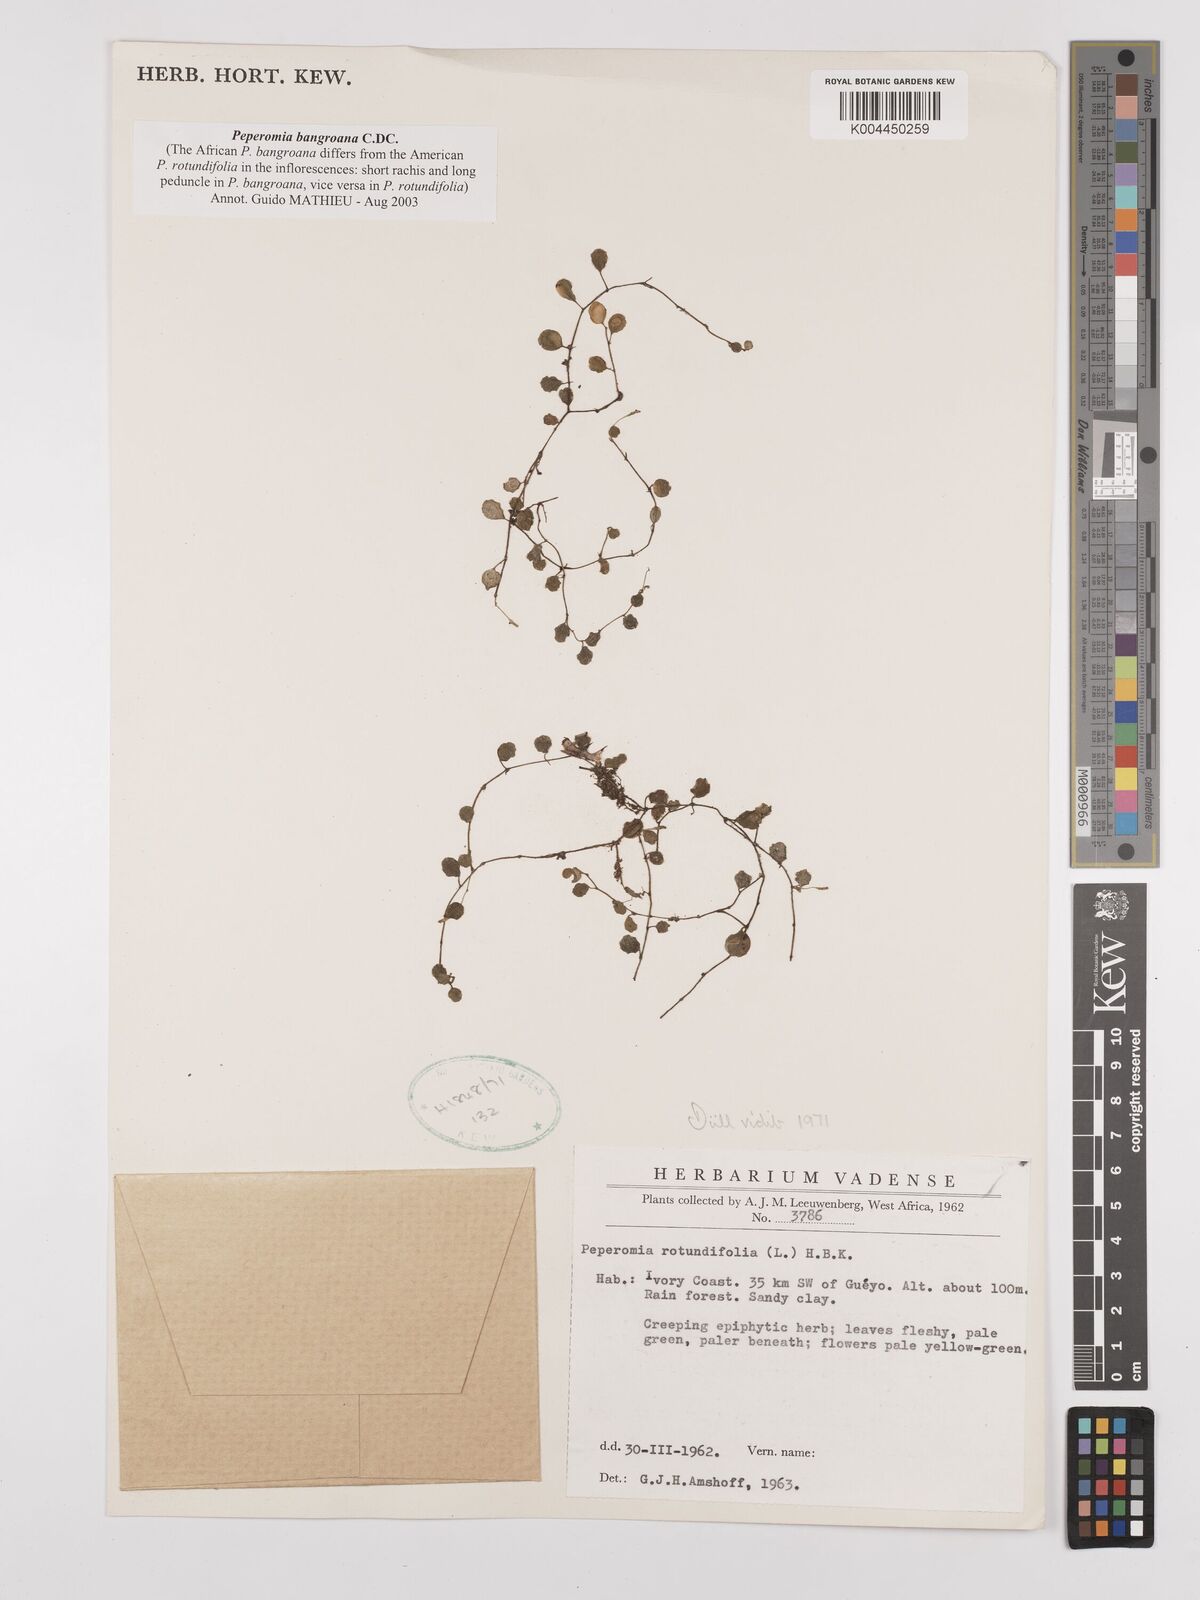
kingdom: Plantae
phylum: Tracheophyta
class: Magnoliopsida
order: Piperales
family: Piperaceae
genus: Peperomia
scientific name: Peperomia bangroana
